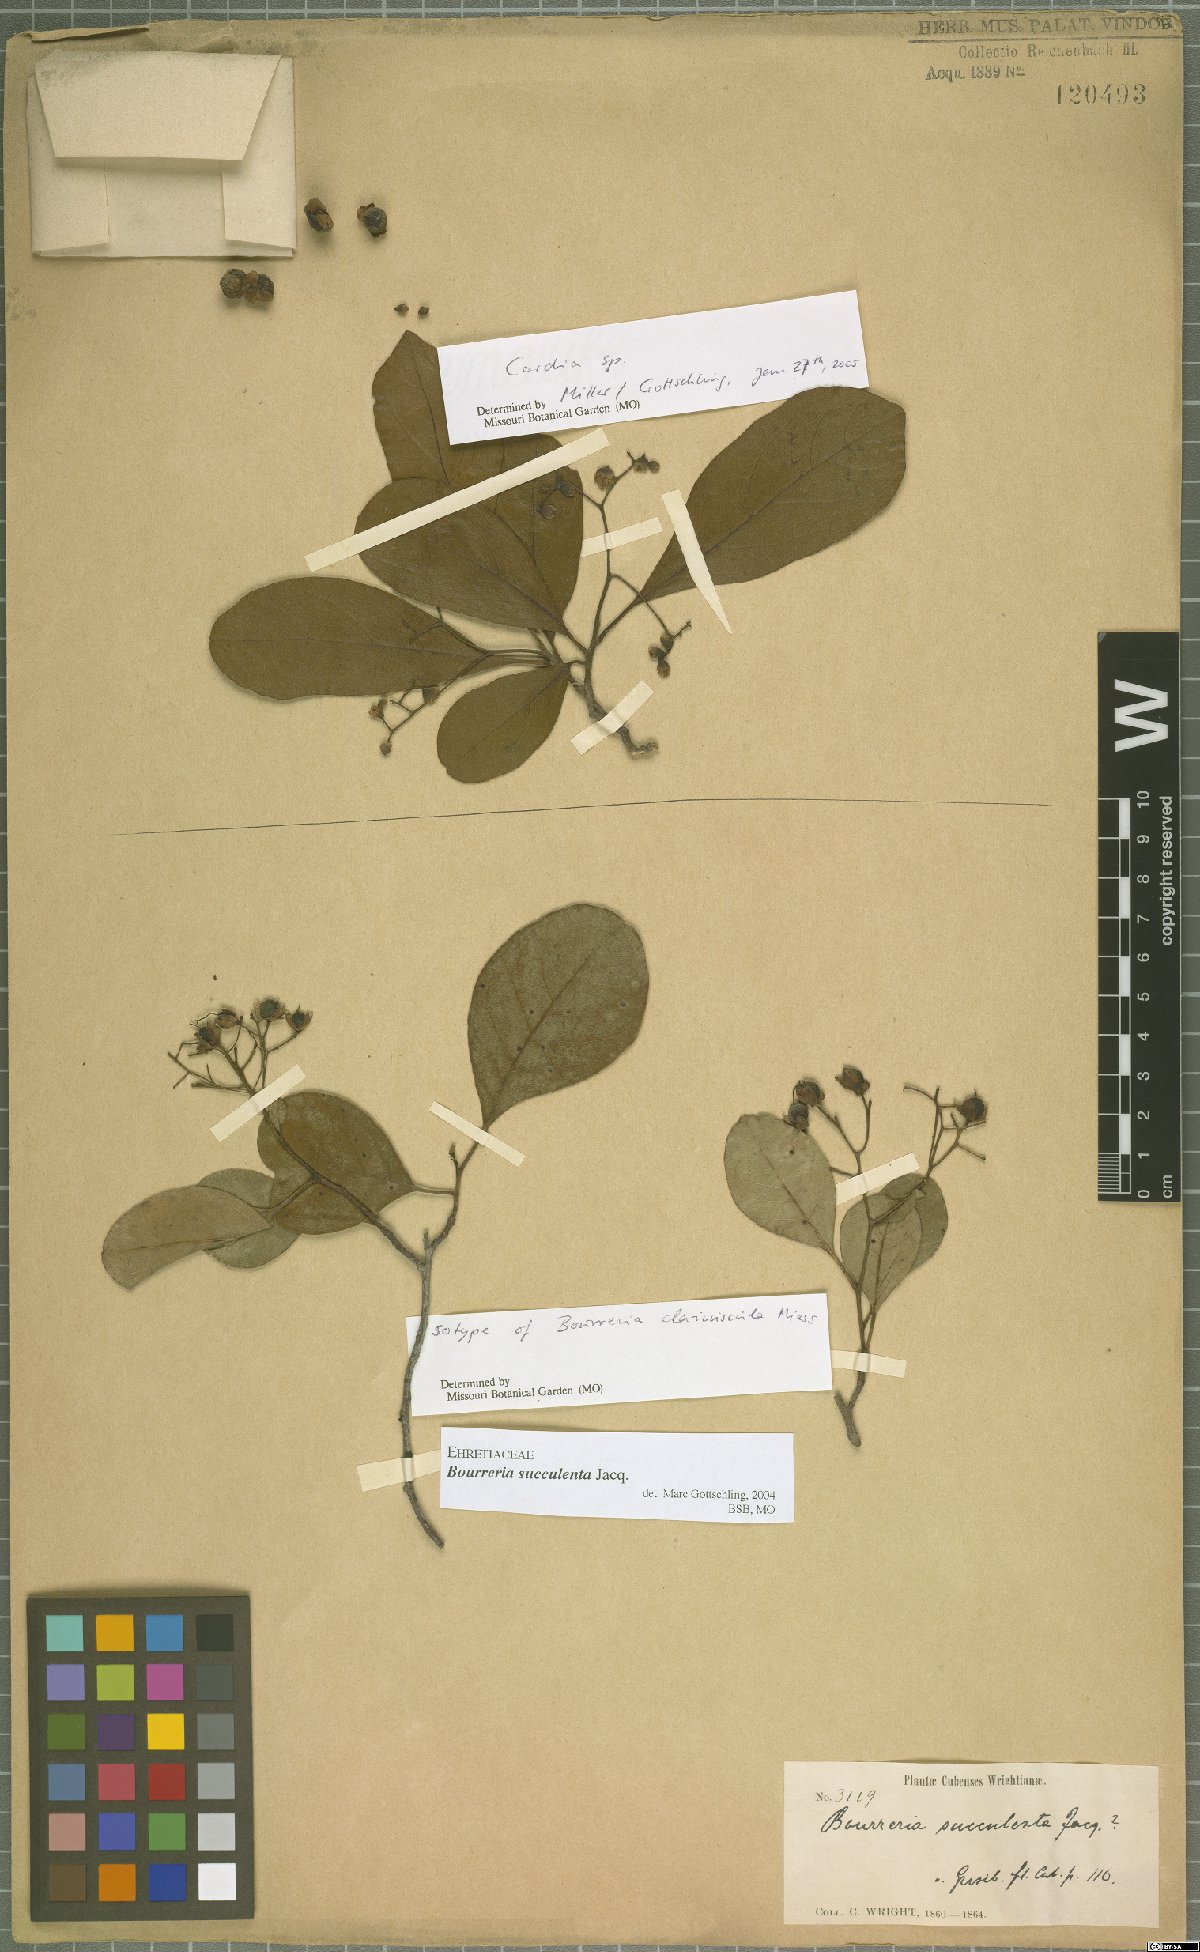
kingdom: Plantae
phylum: Tracheophyta
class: Magnoliopsida
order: Boraginales
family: Ehretiaceae
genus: Bourreria
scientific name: Bourreria succulenta
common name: Cherry
